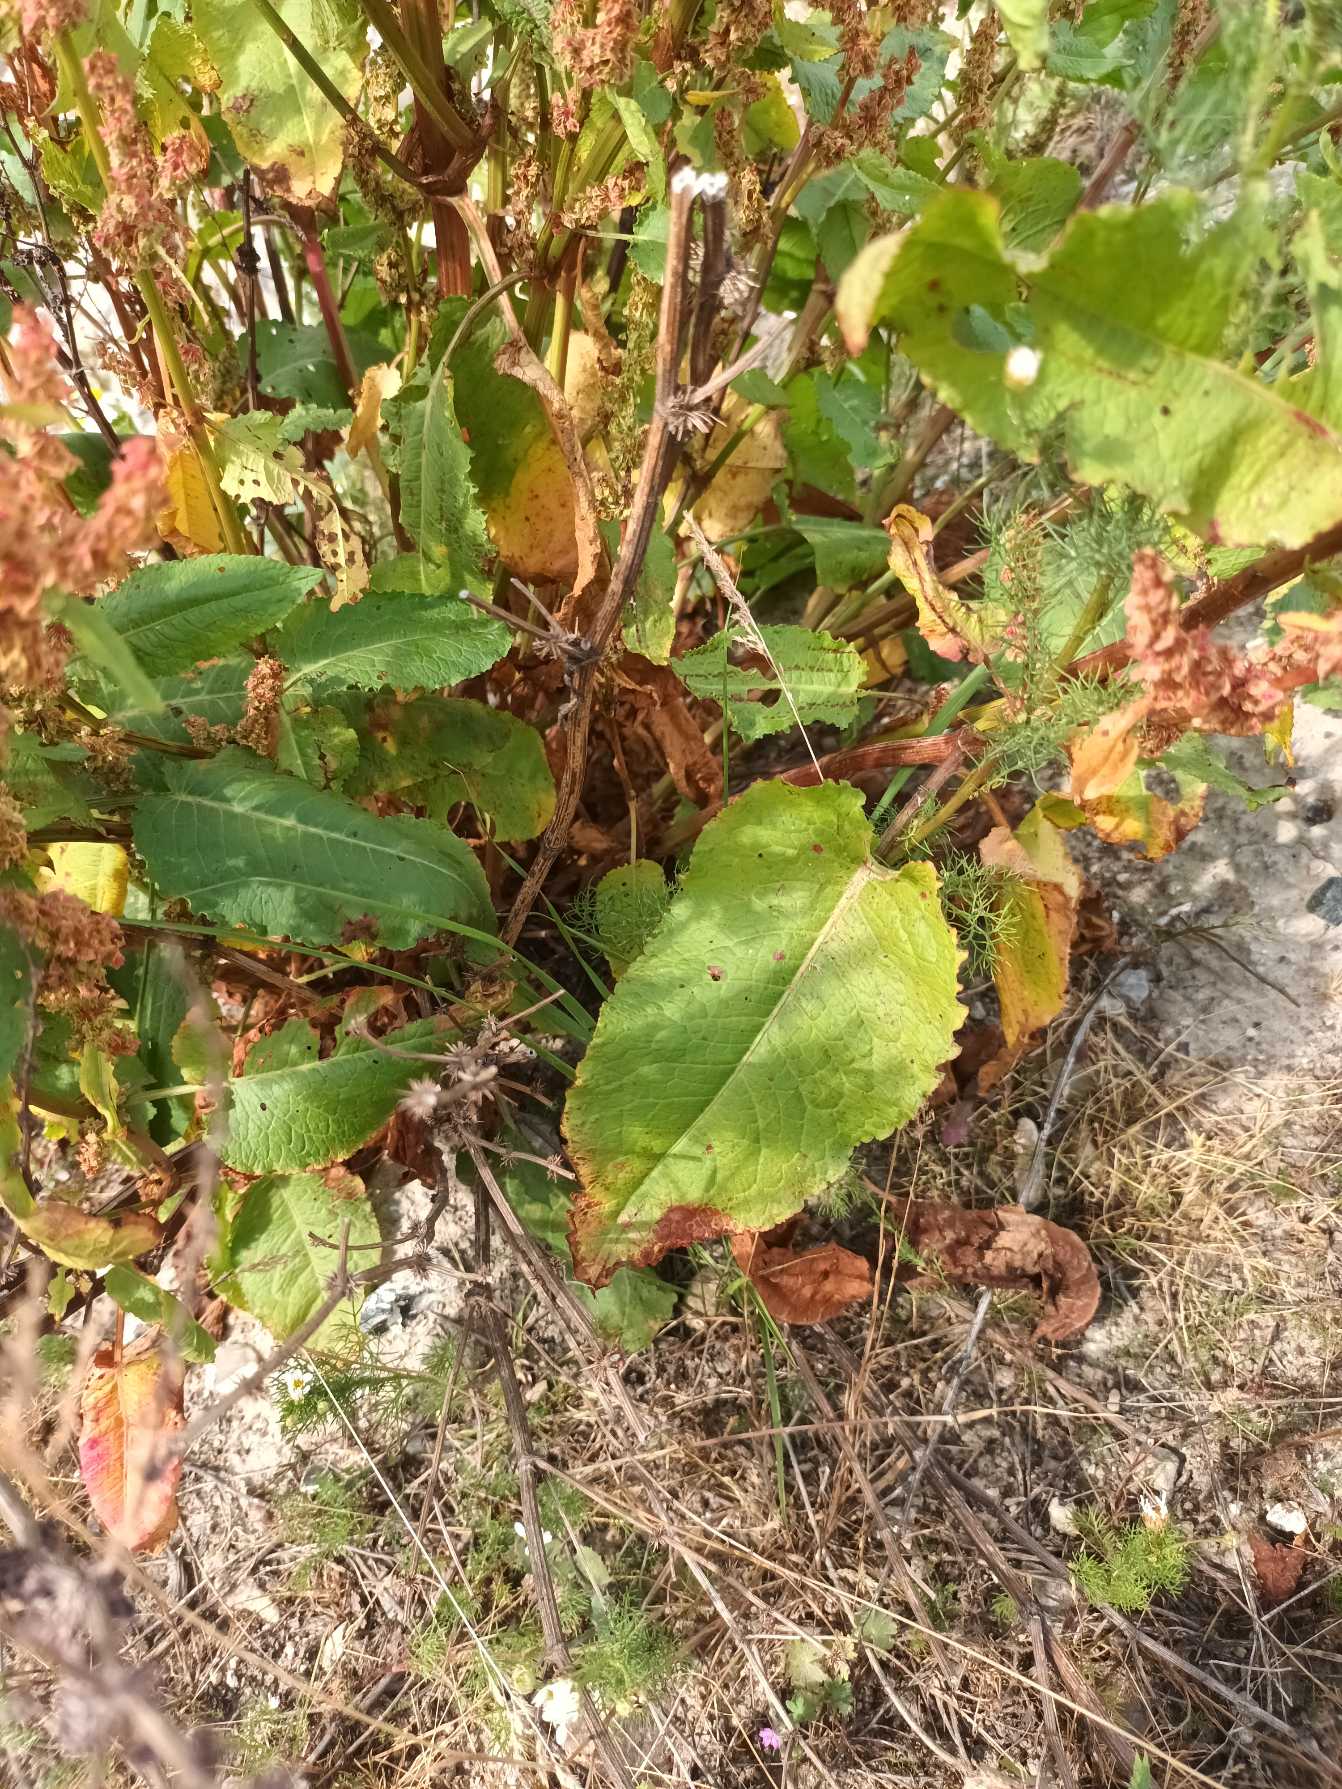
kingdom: Plantae
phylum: Tracheophyta
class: Magnoliopsida
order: Caryophyllales
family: Polygonaceae
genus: Rumex
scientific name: Rumex obtusifolius
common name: Butbladet skræppe
